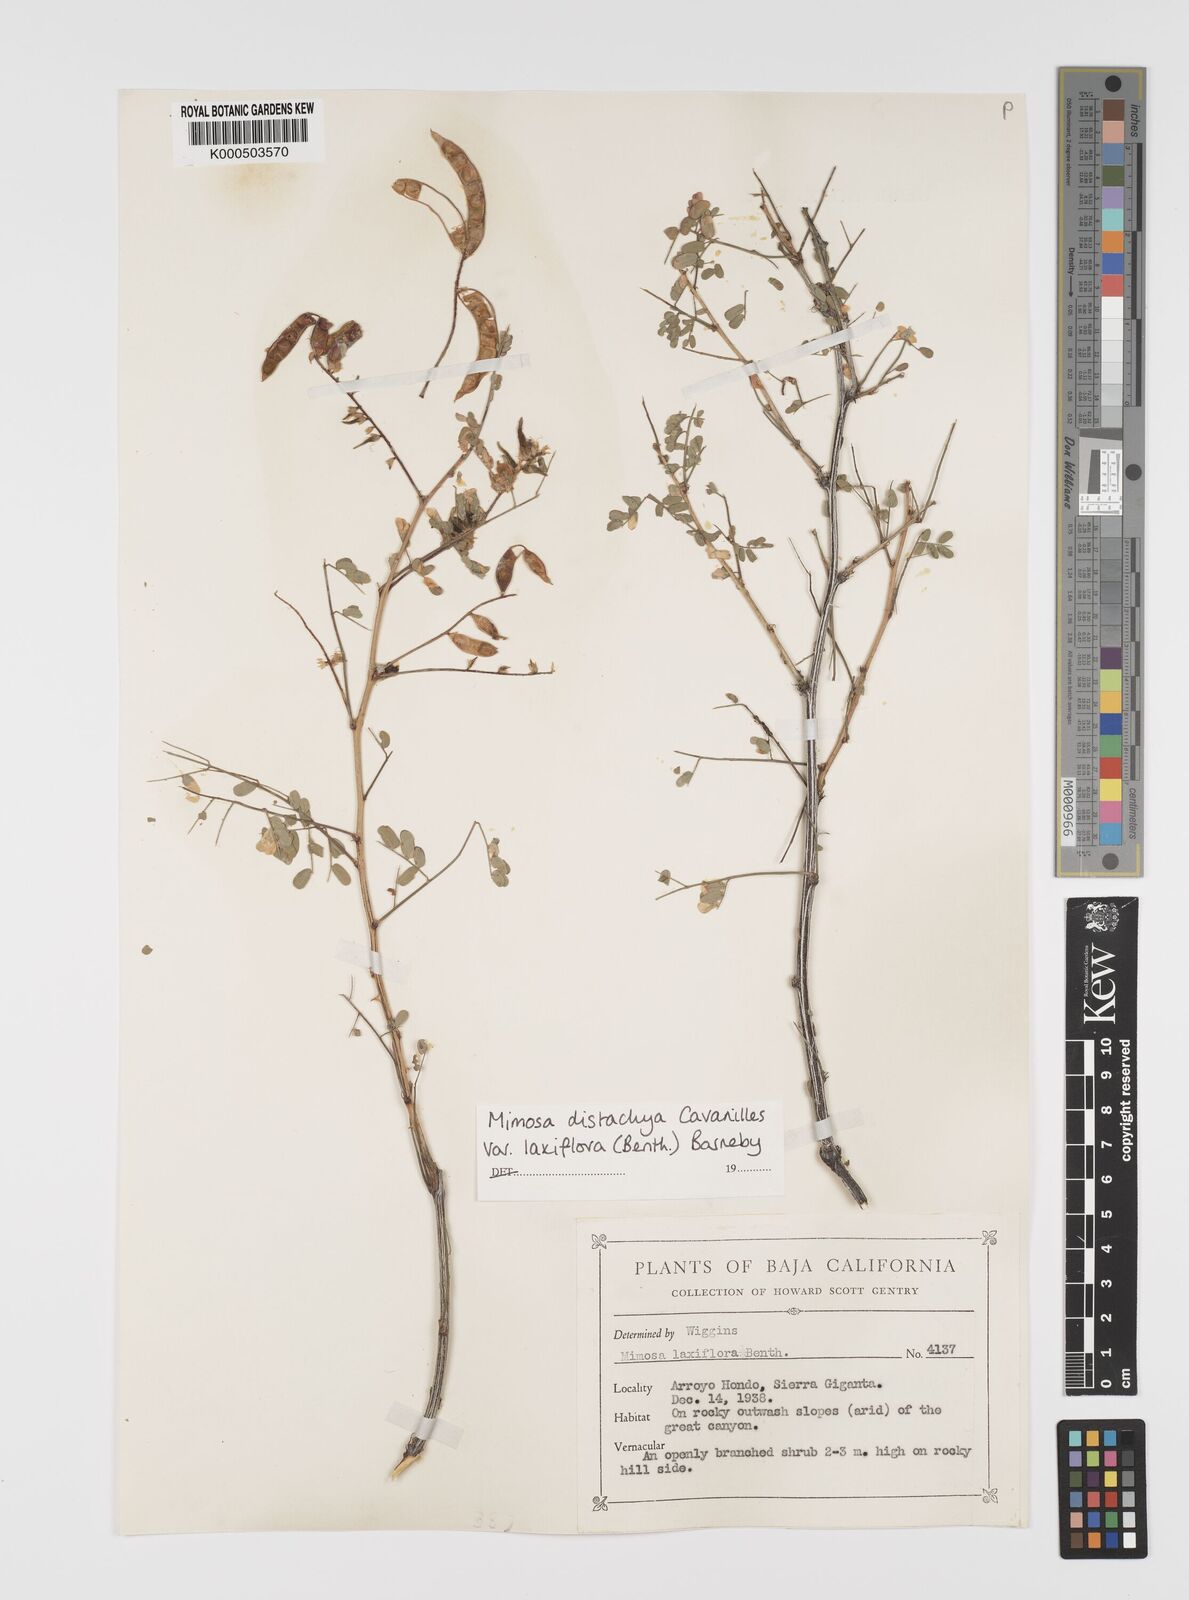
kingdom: Plantae
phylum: Tracheophyta
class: Magnoliopsida
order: Fabales
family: Fabaceae
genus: Mimosa
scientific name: Mimosa distachya
